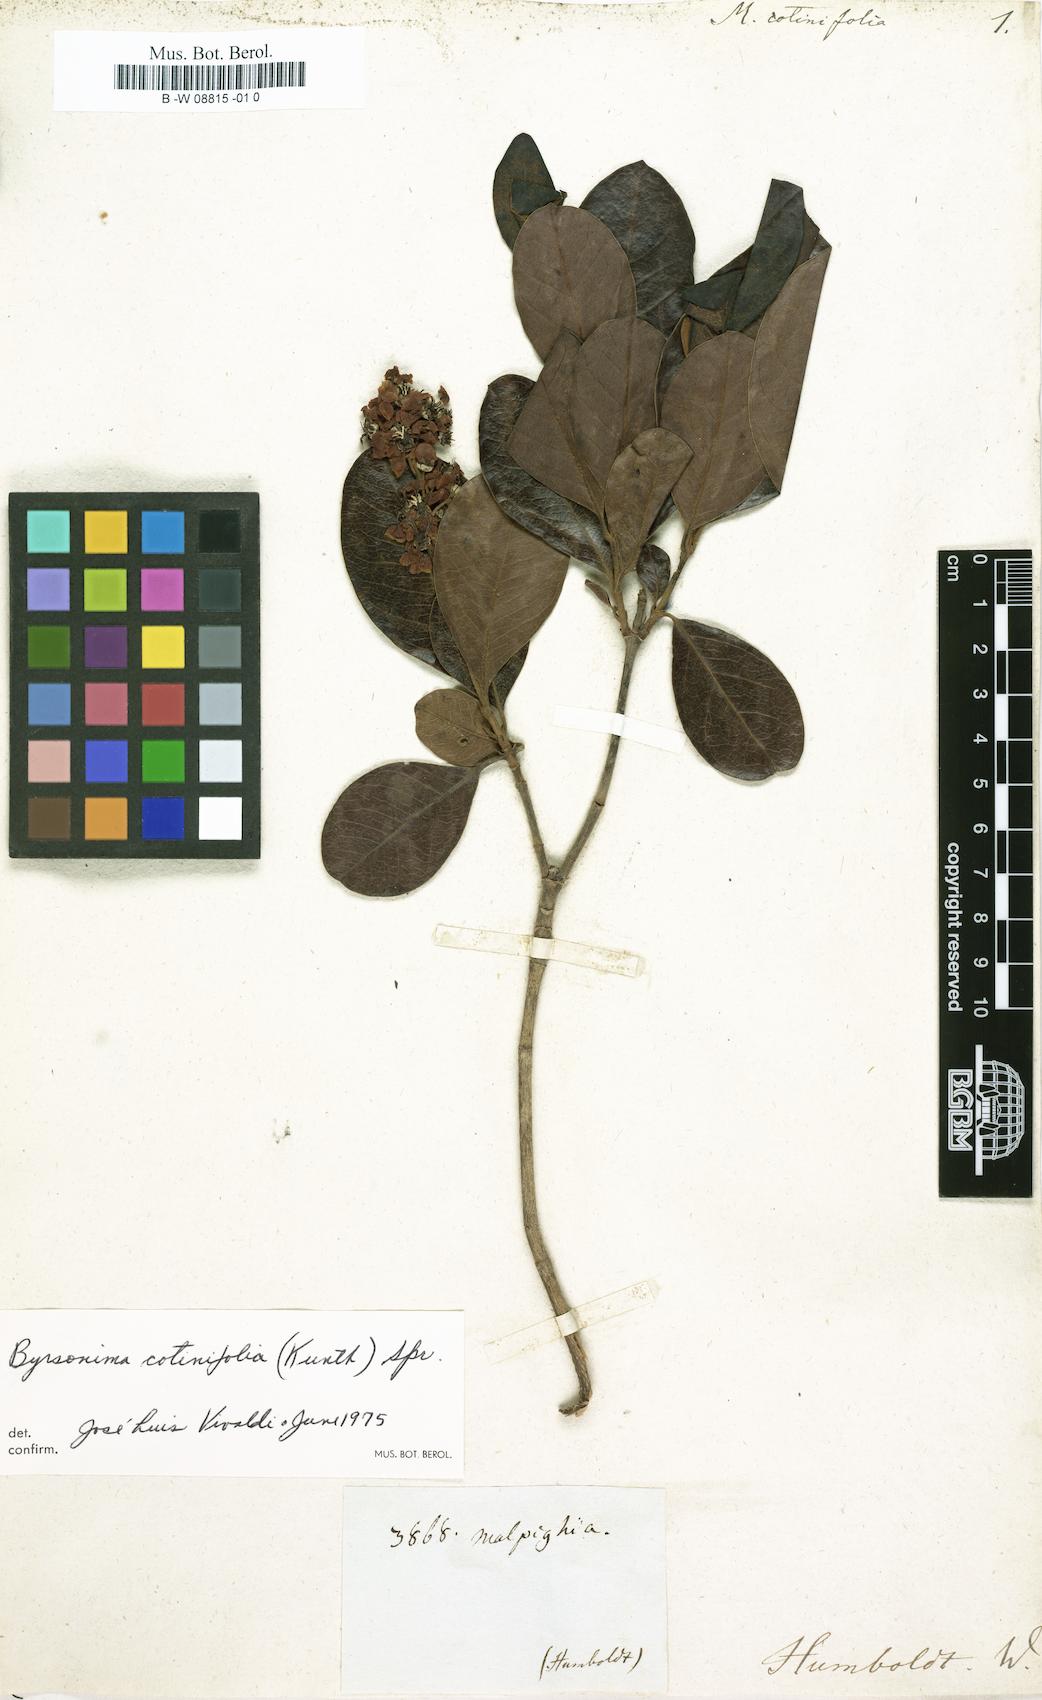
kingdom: Plantae
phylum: Tracheophyta
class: Magnoliopsida
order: Malpighiales
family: Malpighiaceae
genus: Byrsonima
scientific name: Byrsonima crassifolia
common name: Golden spoon
